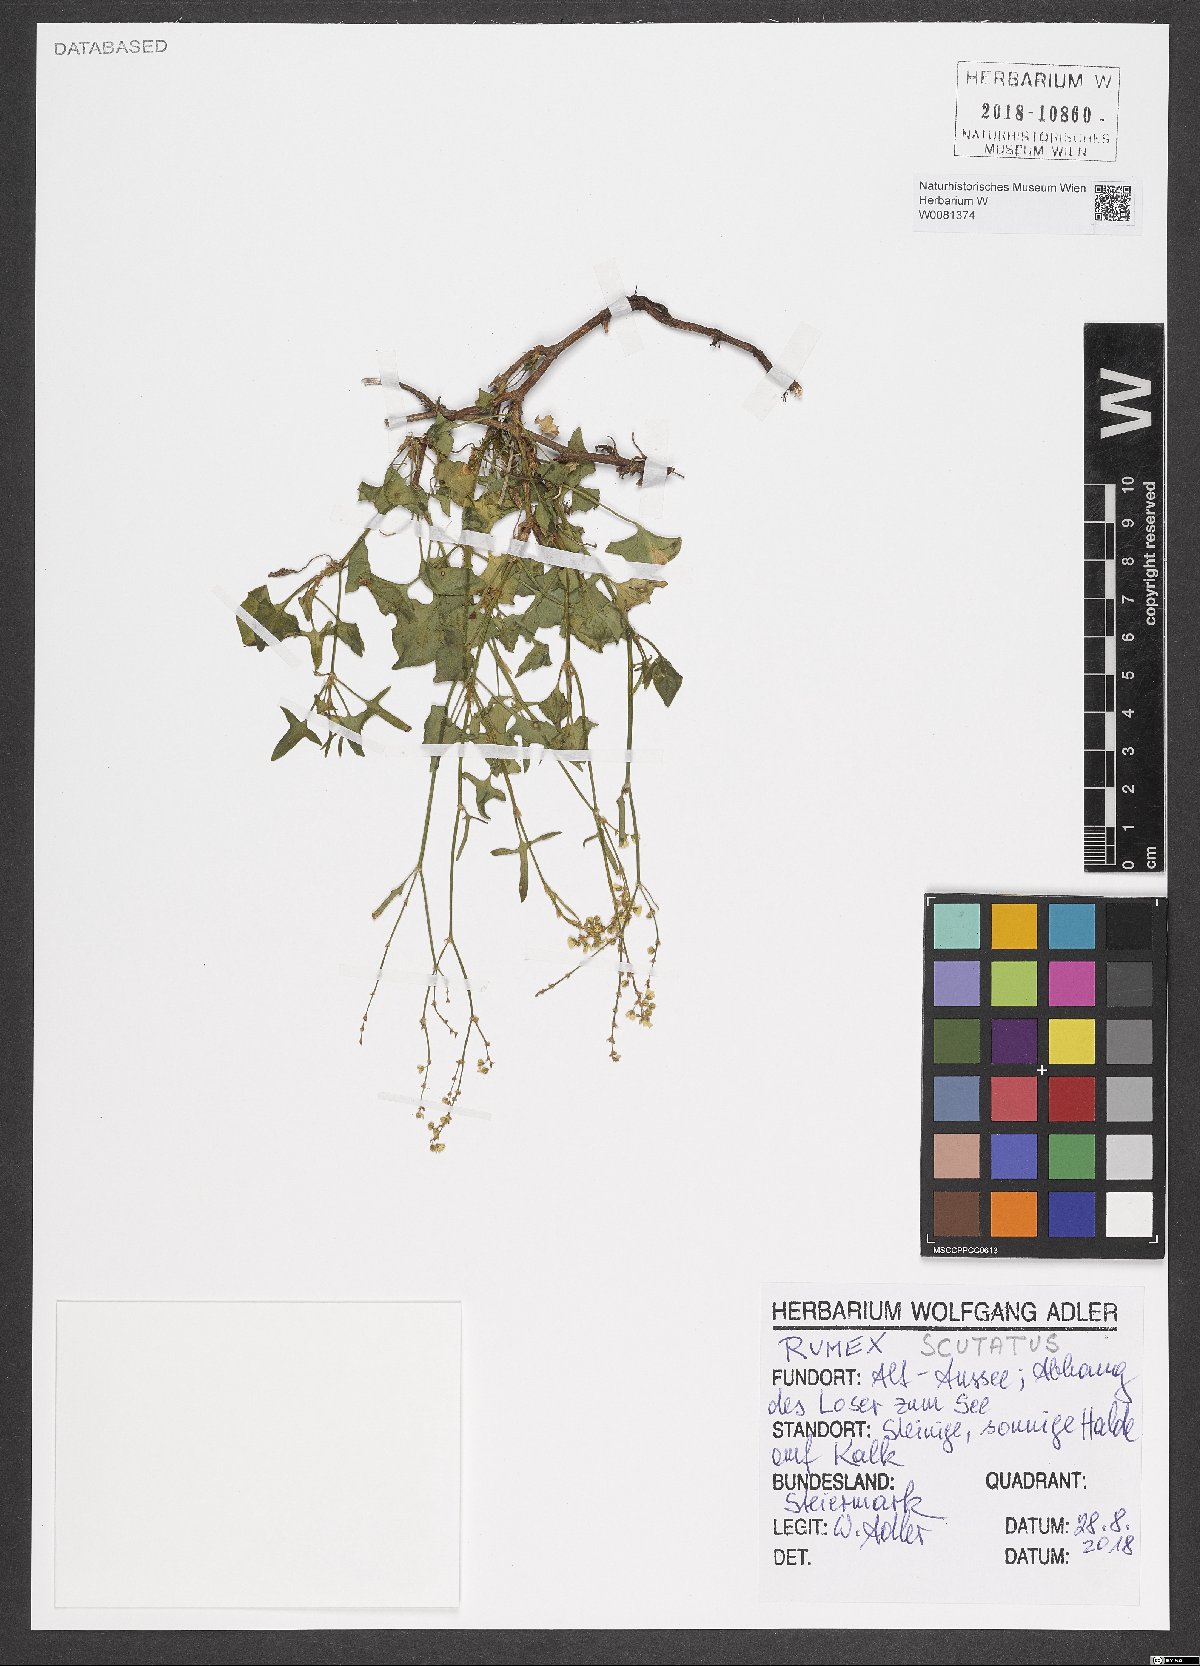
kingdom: Plantae
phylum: Tracheophyta
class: Magnoliopsida
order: Caryophyllales
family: Polygonaceae
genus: Rumex
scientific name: Rumex scutatus
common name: French sorrel
